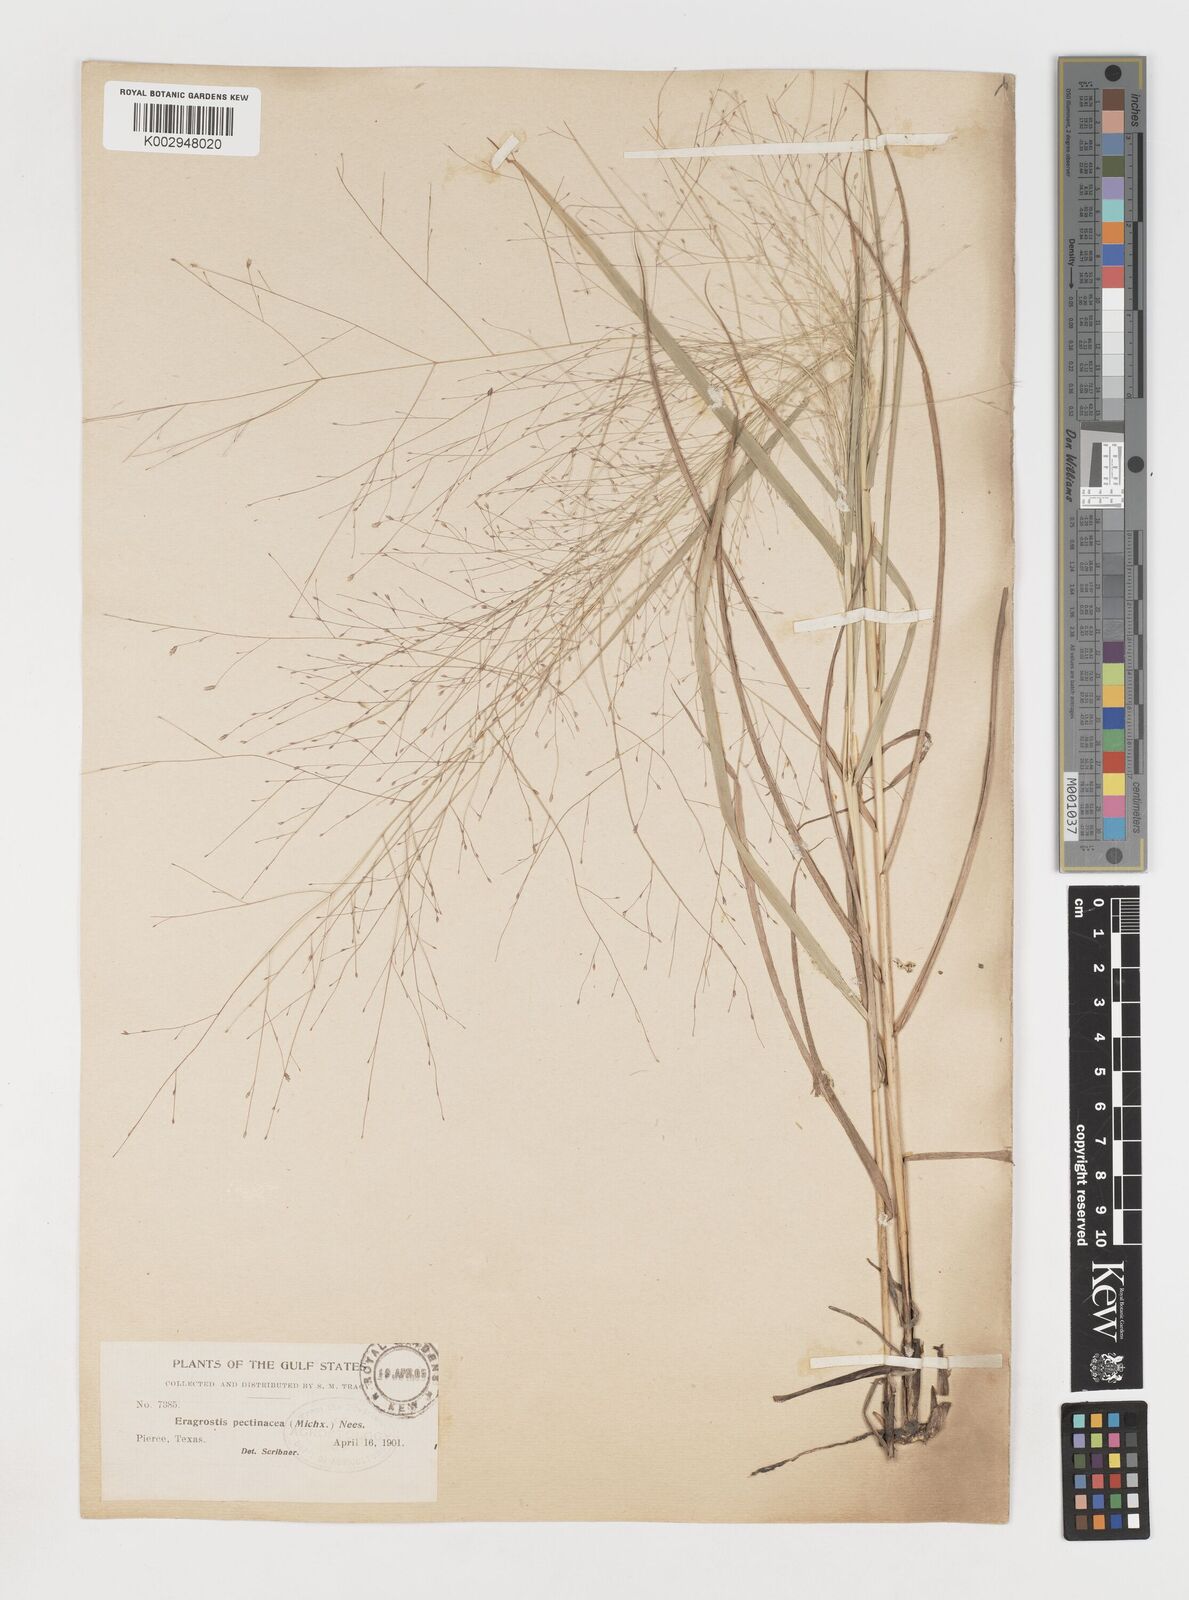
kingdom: Plantae
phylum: Tracheophyta
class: Liliopsida
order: Poales
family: Poaceae
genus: Eragrostis
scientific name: Eragrostis spectabilis
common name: Petticoat-climber
